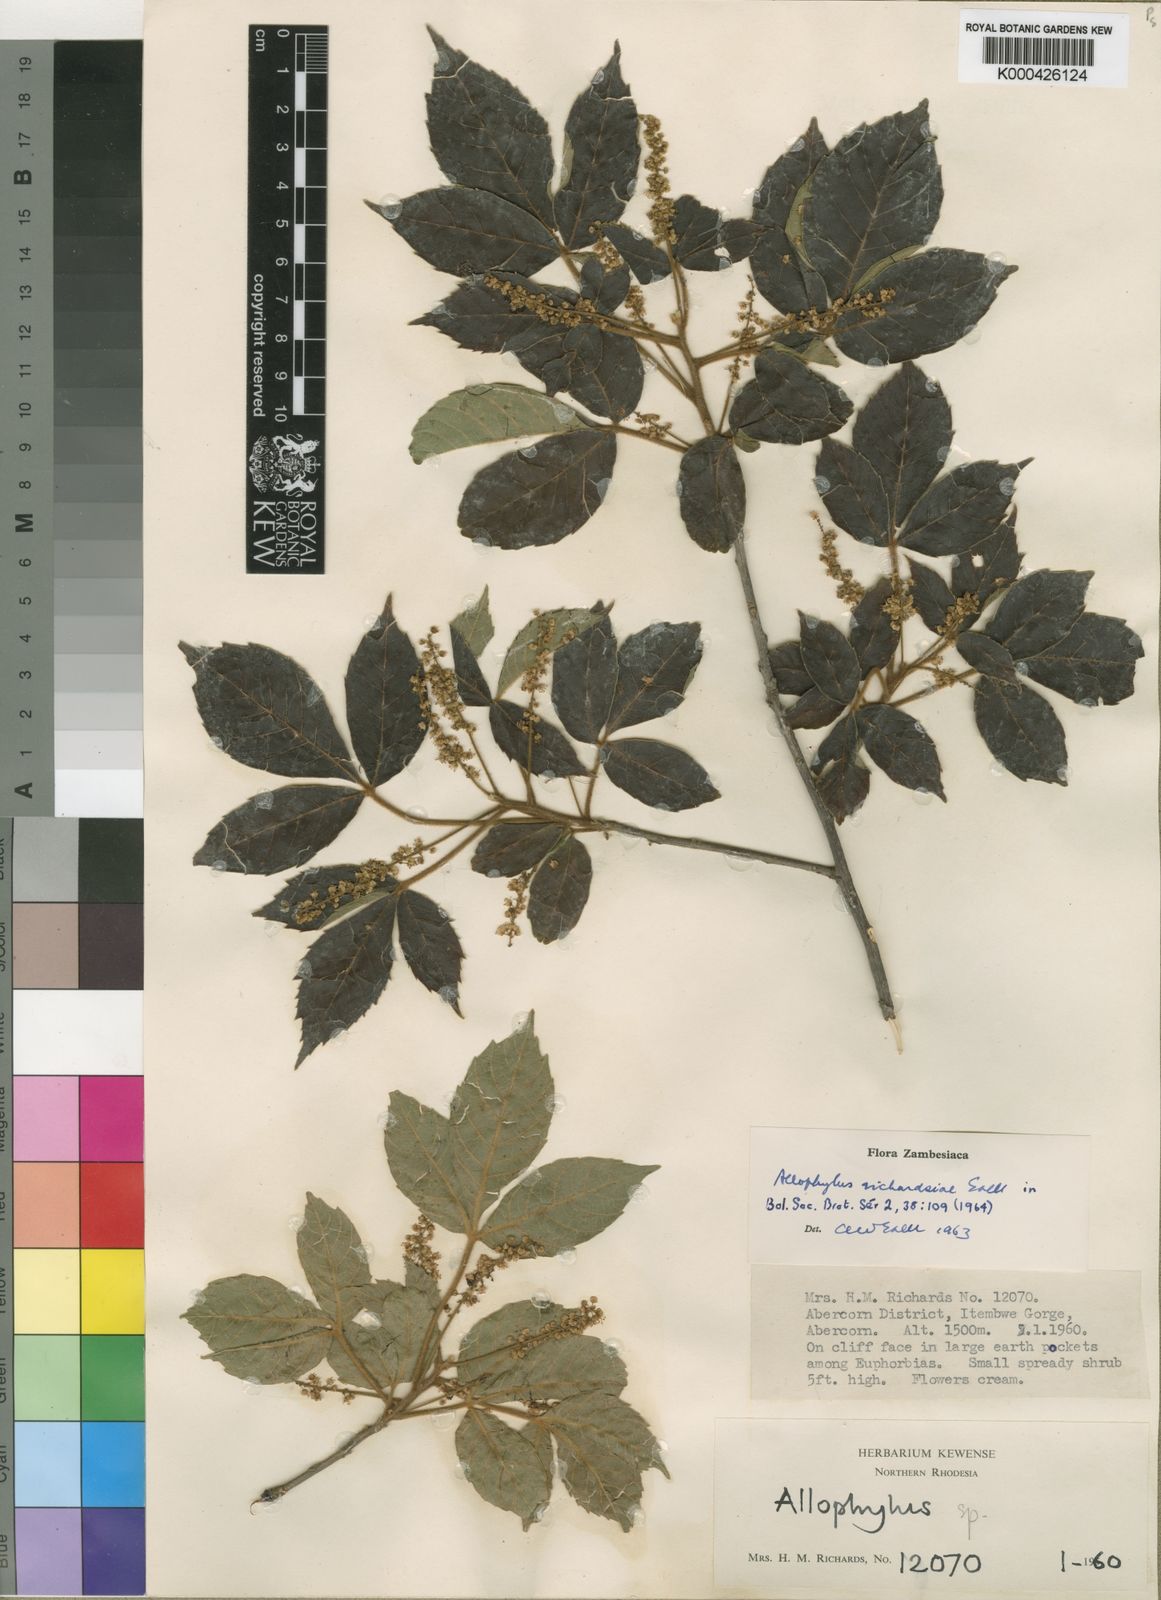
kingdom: Plantae
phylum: Tracheophyta
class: Magnoliopsida
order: Sapindales
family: Sapindaceae
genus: Allophylus
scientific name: Allophylus chaunostachys
